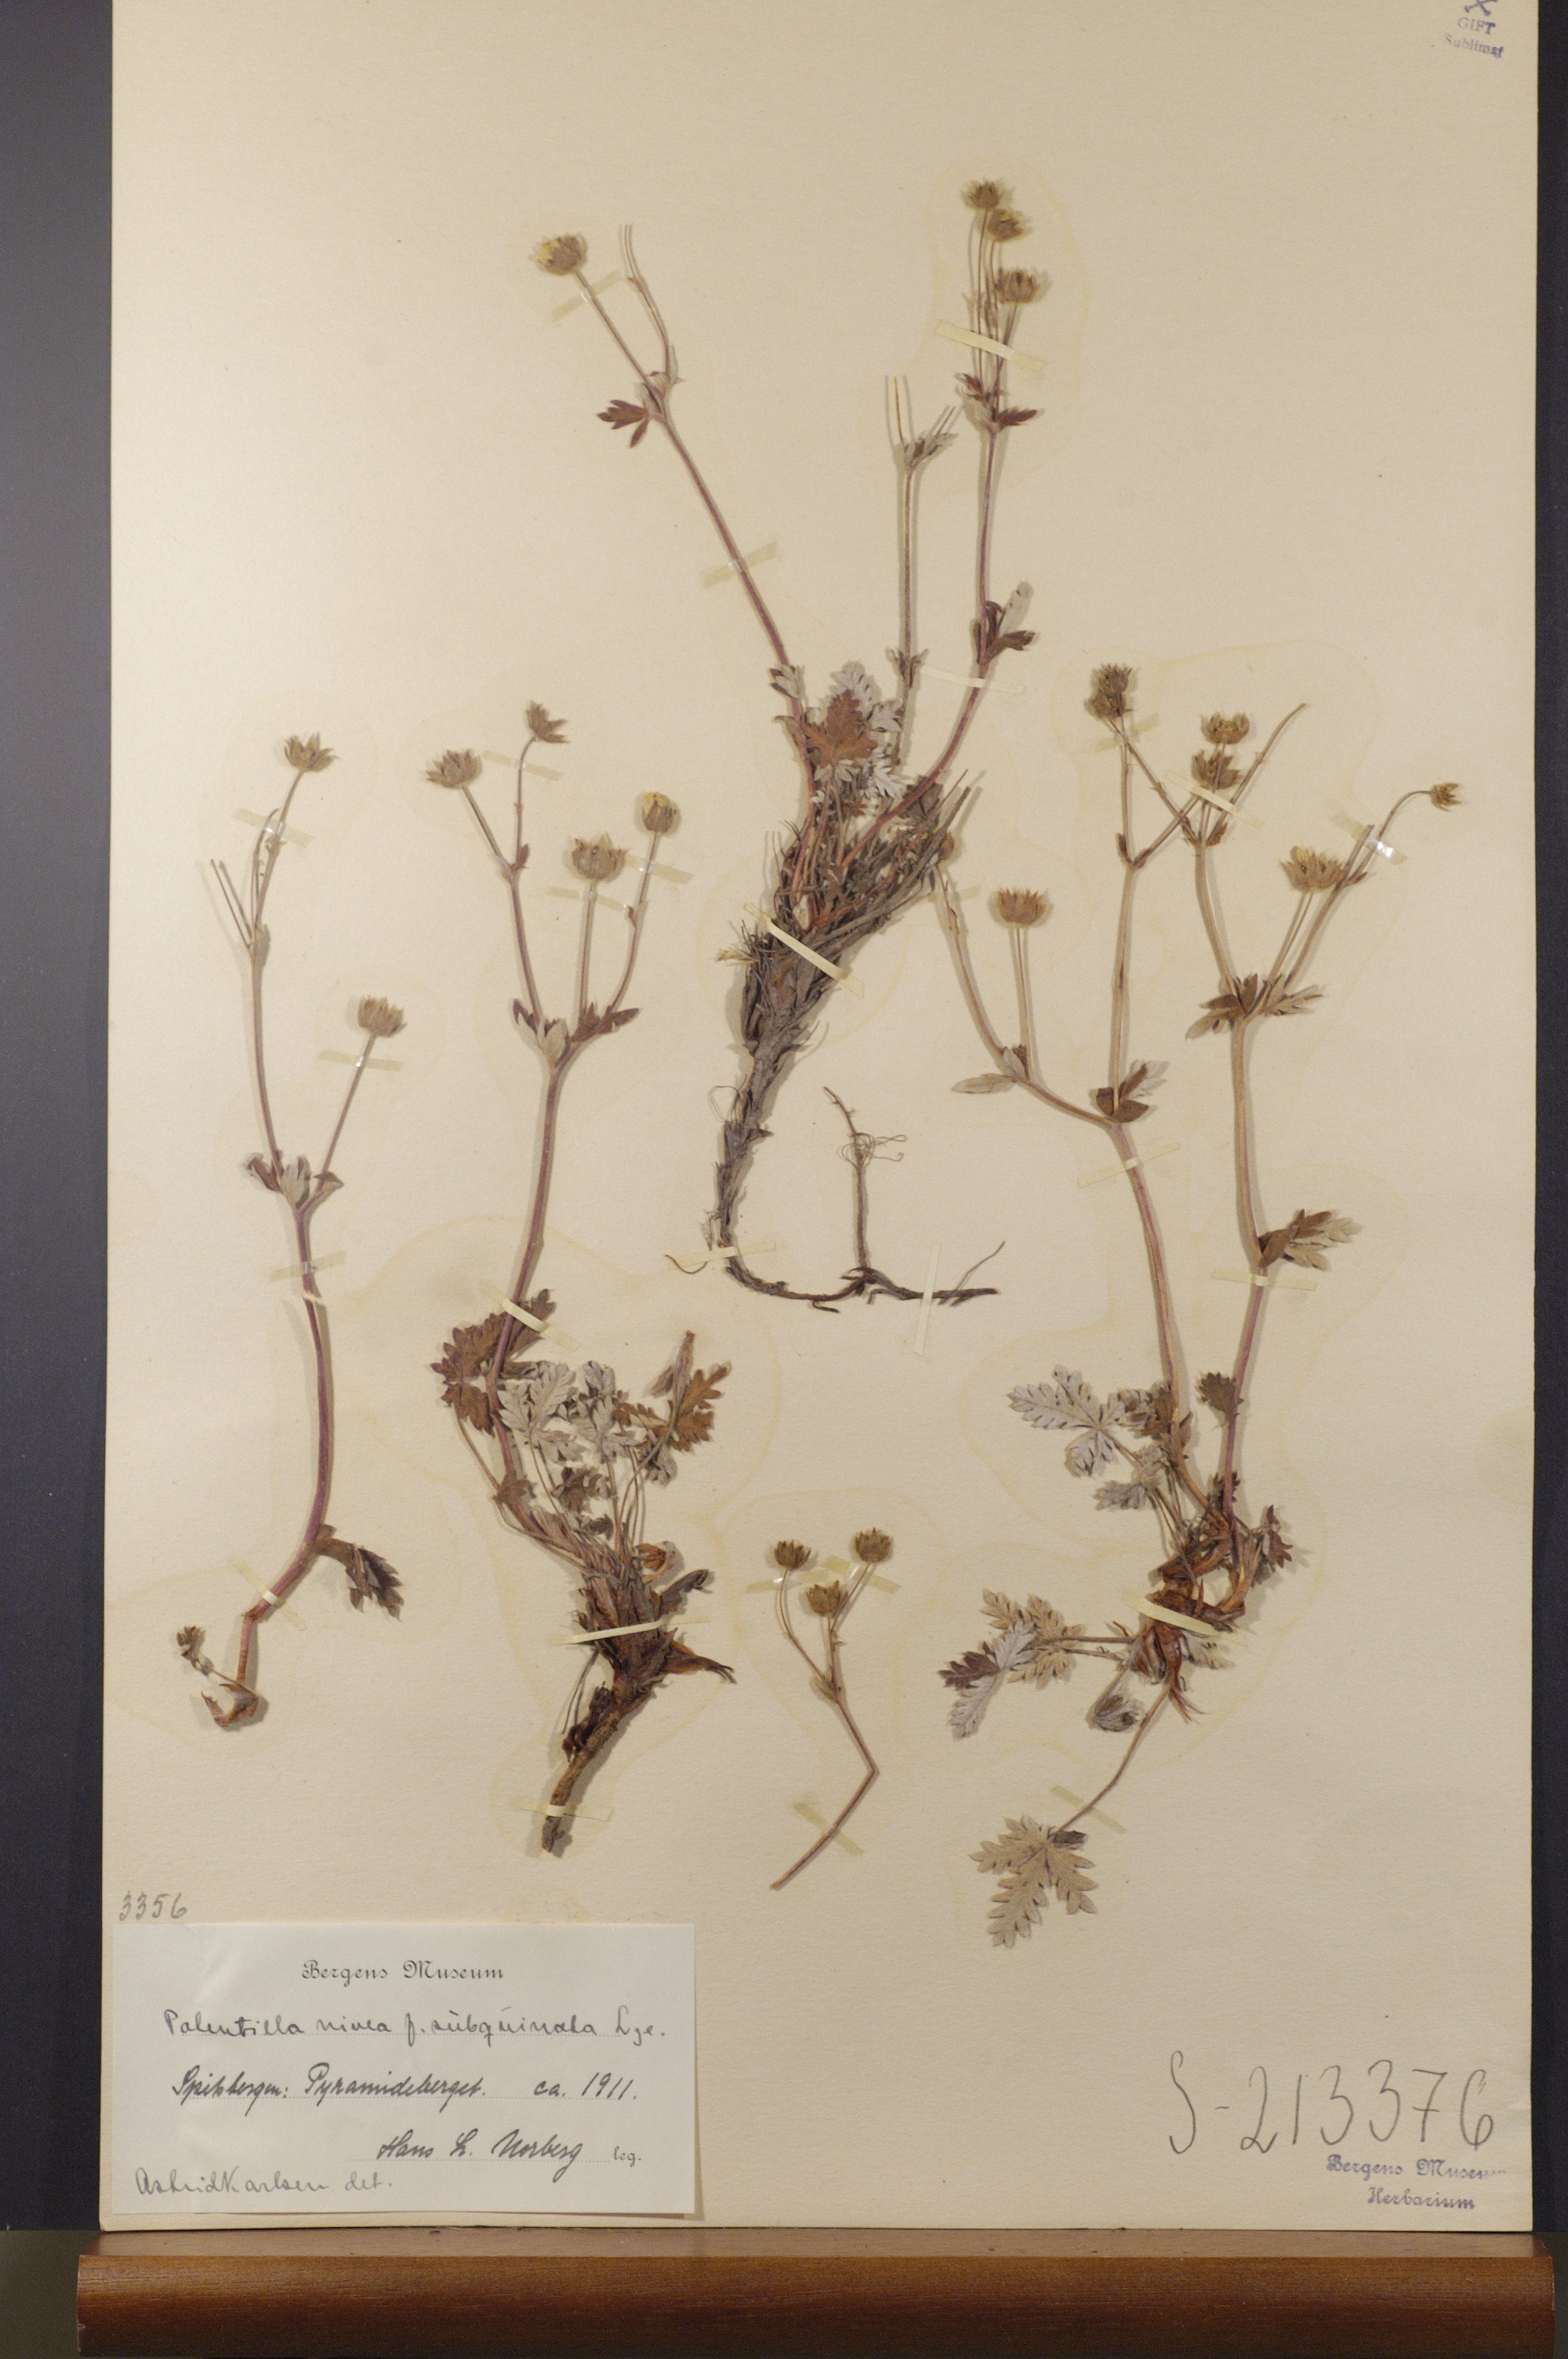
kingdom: Plantae
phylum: Tracheophyta
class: Magnoliopsida
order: Rosales
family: Rosaceae
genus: Potentilla
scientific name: Potentilla prostrata
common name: Prostrate cinquefoil
